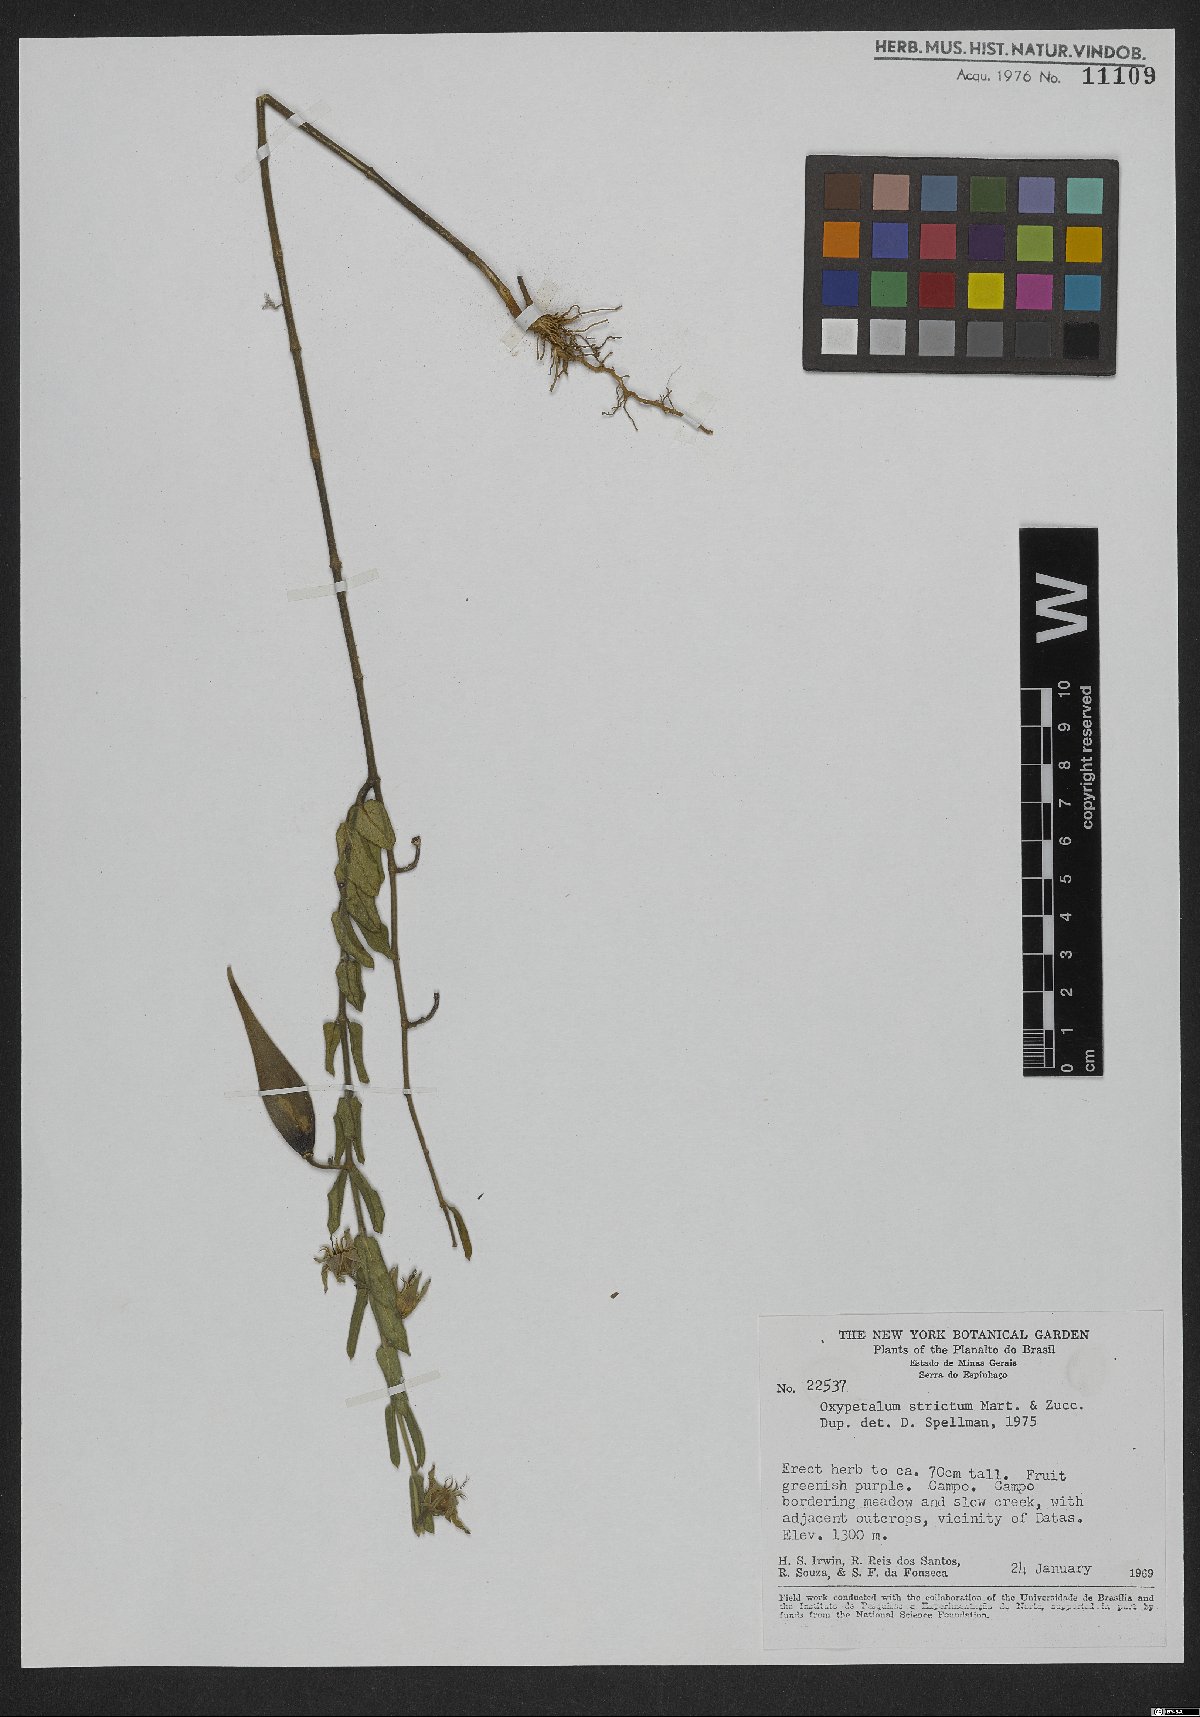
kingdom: Plantae
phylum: Tracheophyta
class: Magnoliopsida
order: Gentianales
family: Apocynaceae
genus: Oxypetalum
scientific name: Oxypetalum strictum
